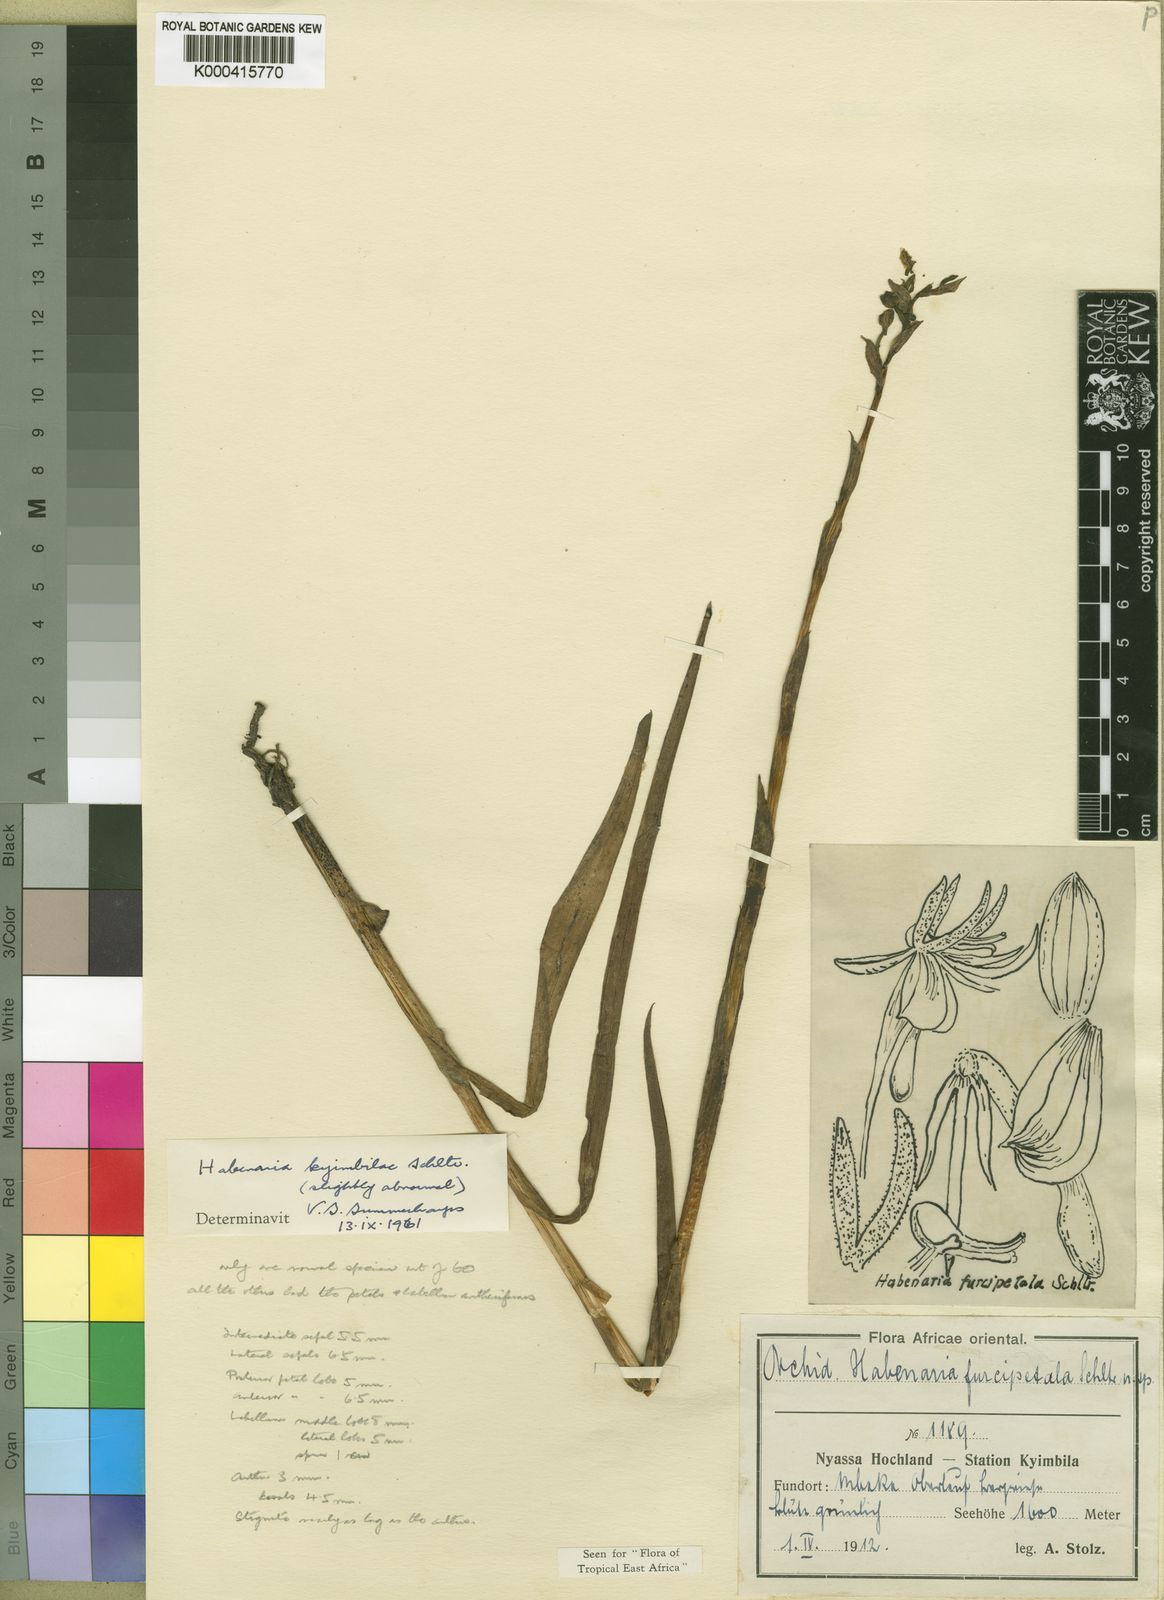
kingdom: Plantae
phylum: Tracheophyta
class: Liliopsida
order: Asparagales
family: Orchidaceae
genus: Habenaria
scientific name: Habenaria kyimbilae
